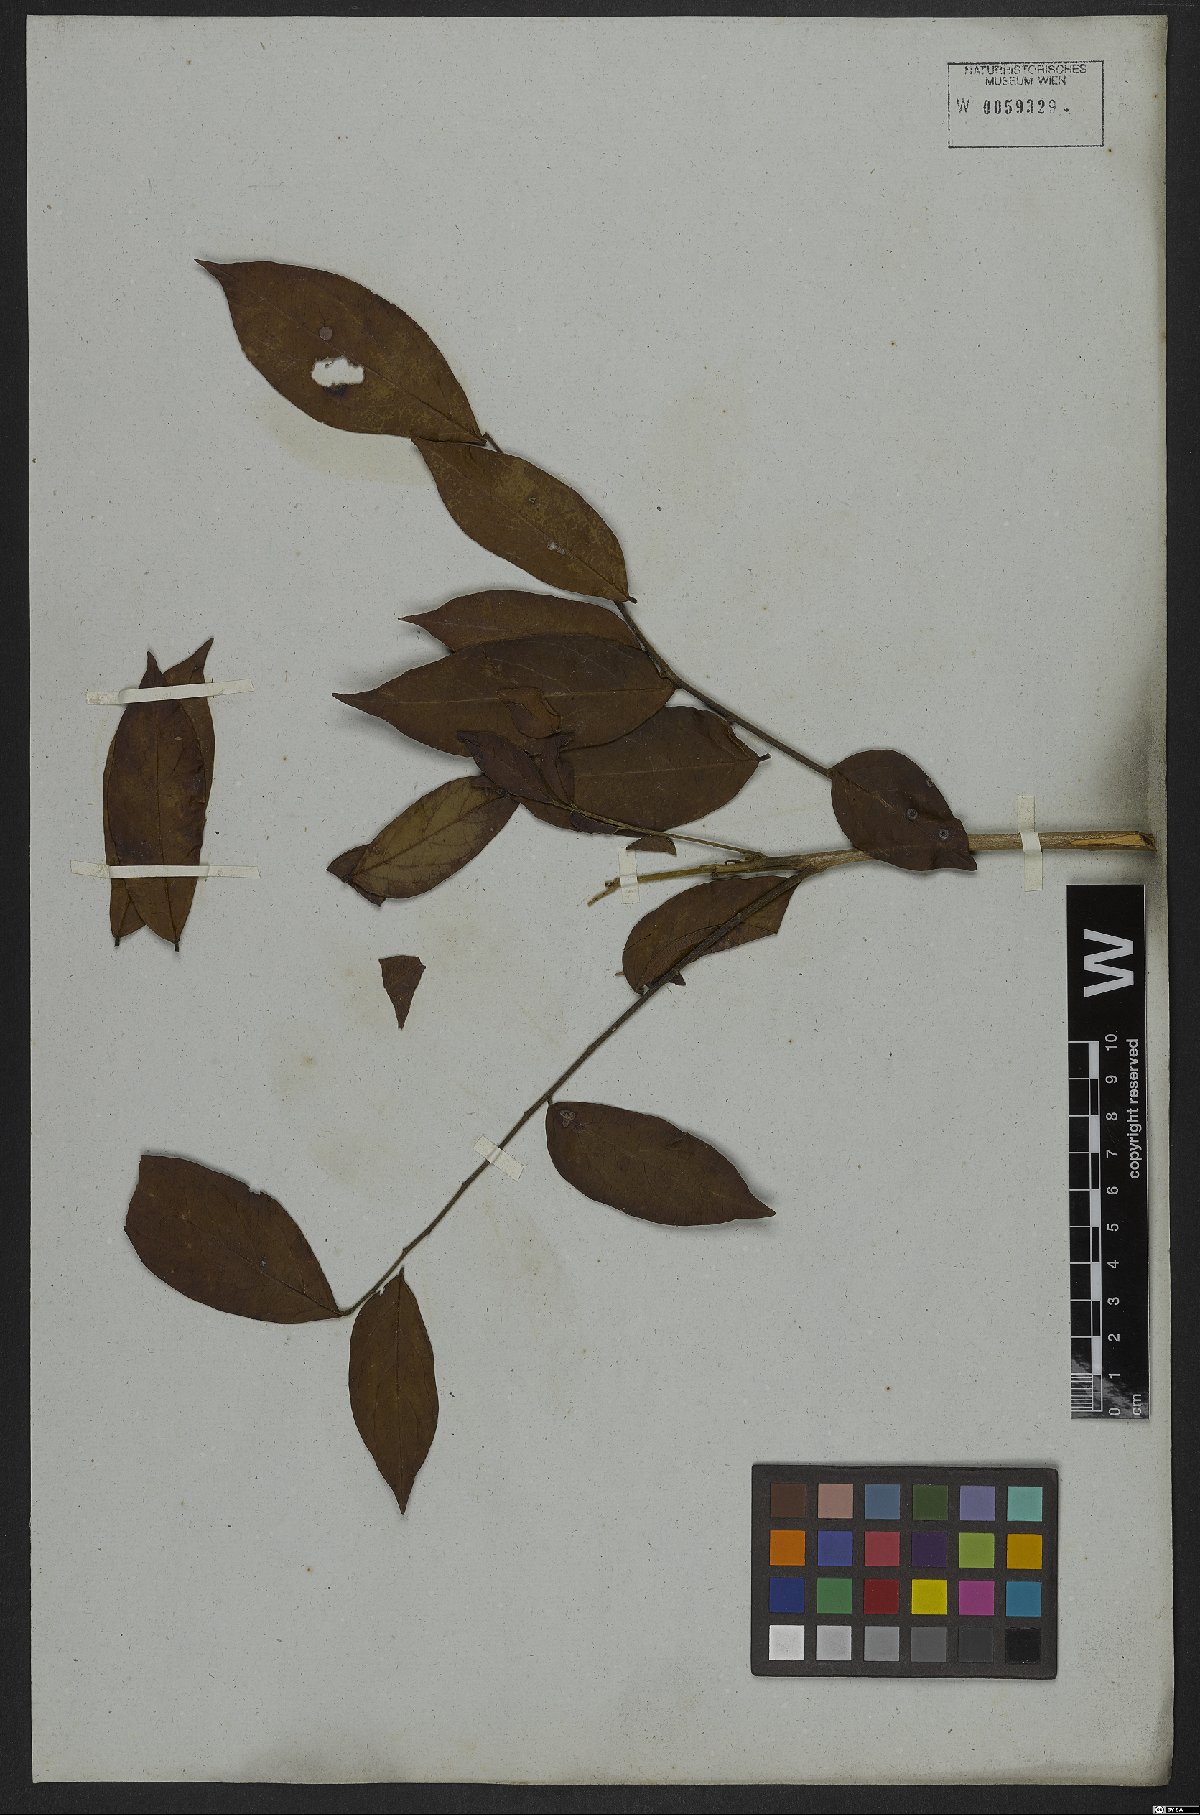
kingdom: Plantae
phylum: Tracheophyta
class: Magnoliopsida
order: Picramniales
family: Picramniaceae
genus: Picramnia
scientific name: Picramnia sellowii
